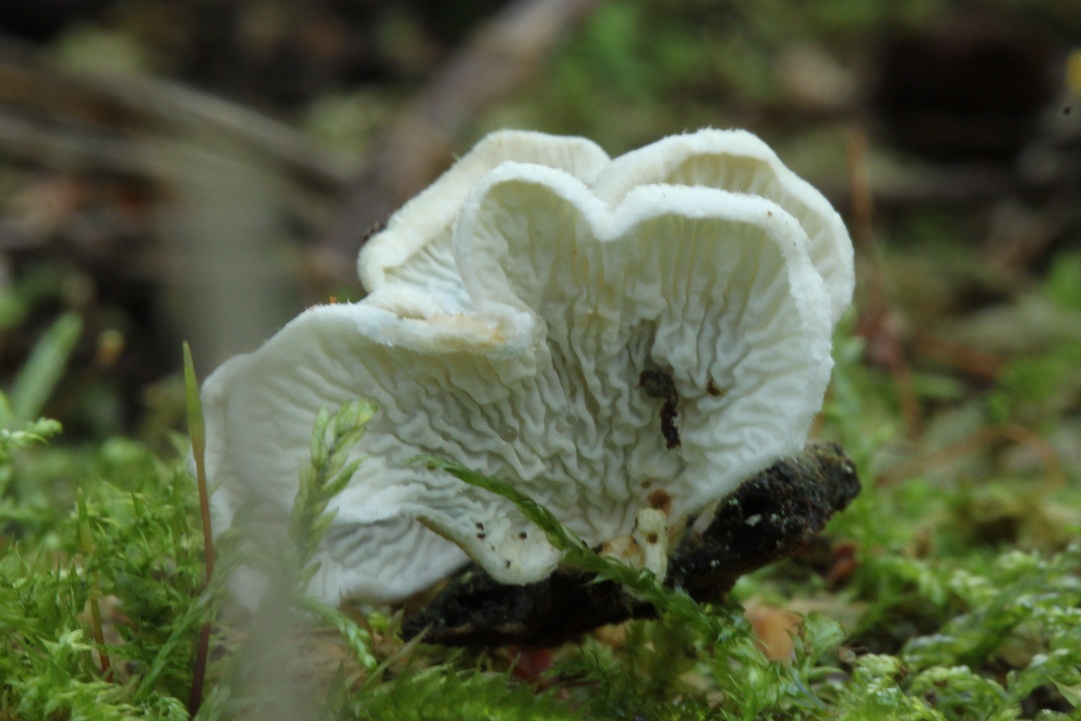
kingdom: Fungi
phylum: Basidiomycota
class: Agaricomycetes
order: Amylocorticiales
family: Amylocorticiaceae
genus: Plicaturopsis
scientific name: Plicaturopsis crispa
